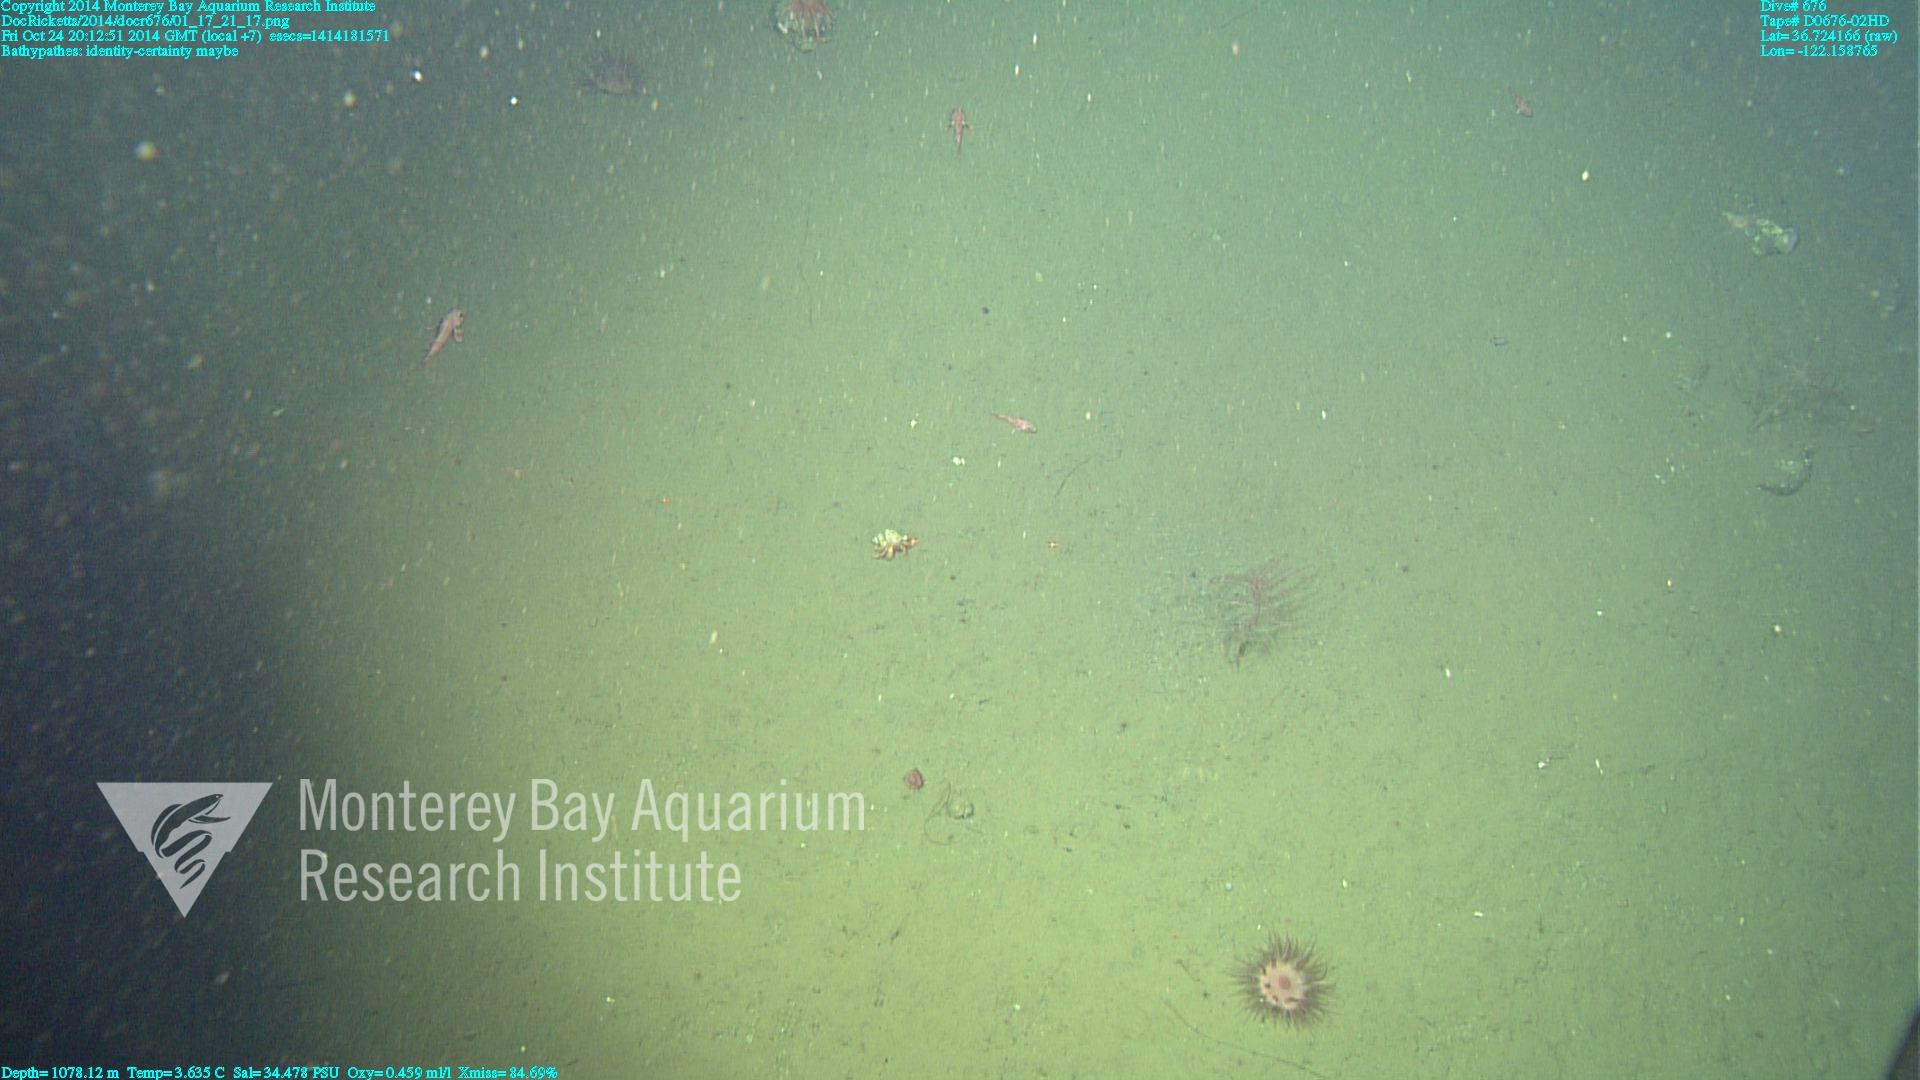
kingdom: Animalia
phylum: Cnidaria
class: Anthozoa
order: Antipatharia
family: Schizopathidae
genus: Bathypathes
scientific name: Bathypathes
